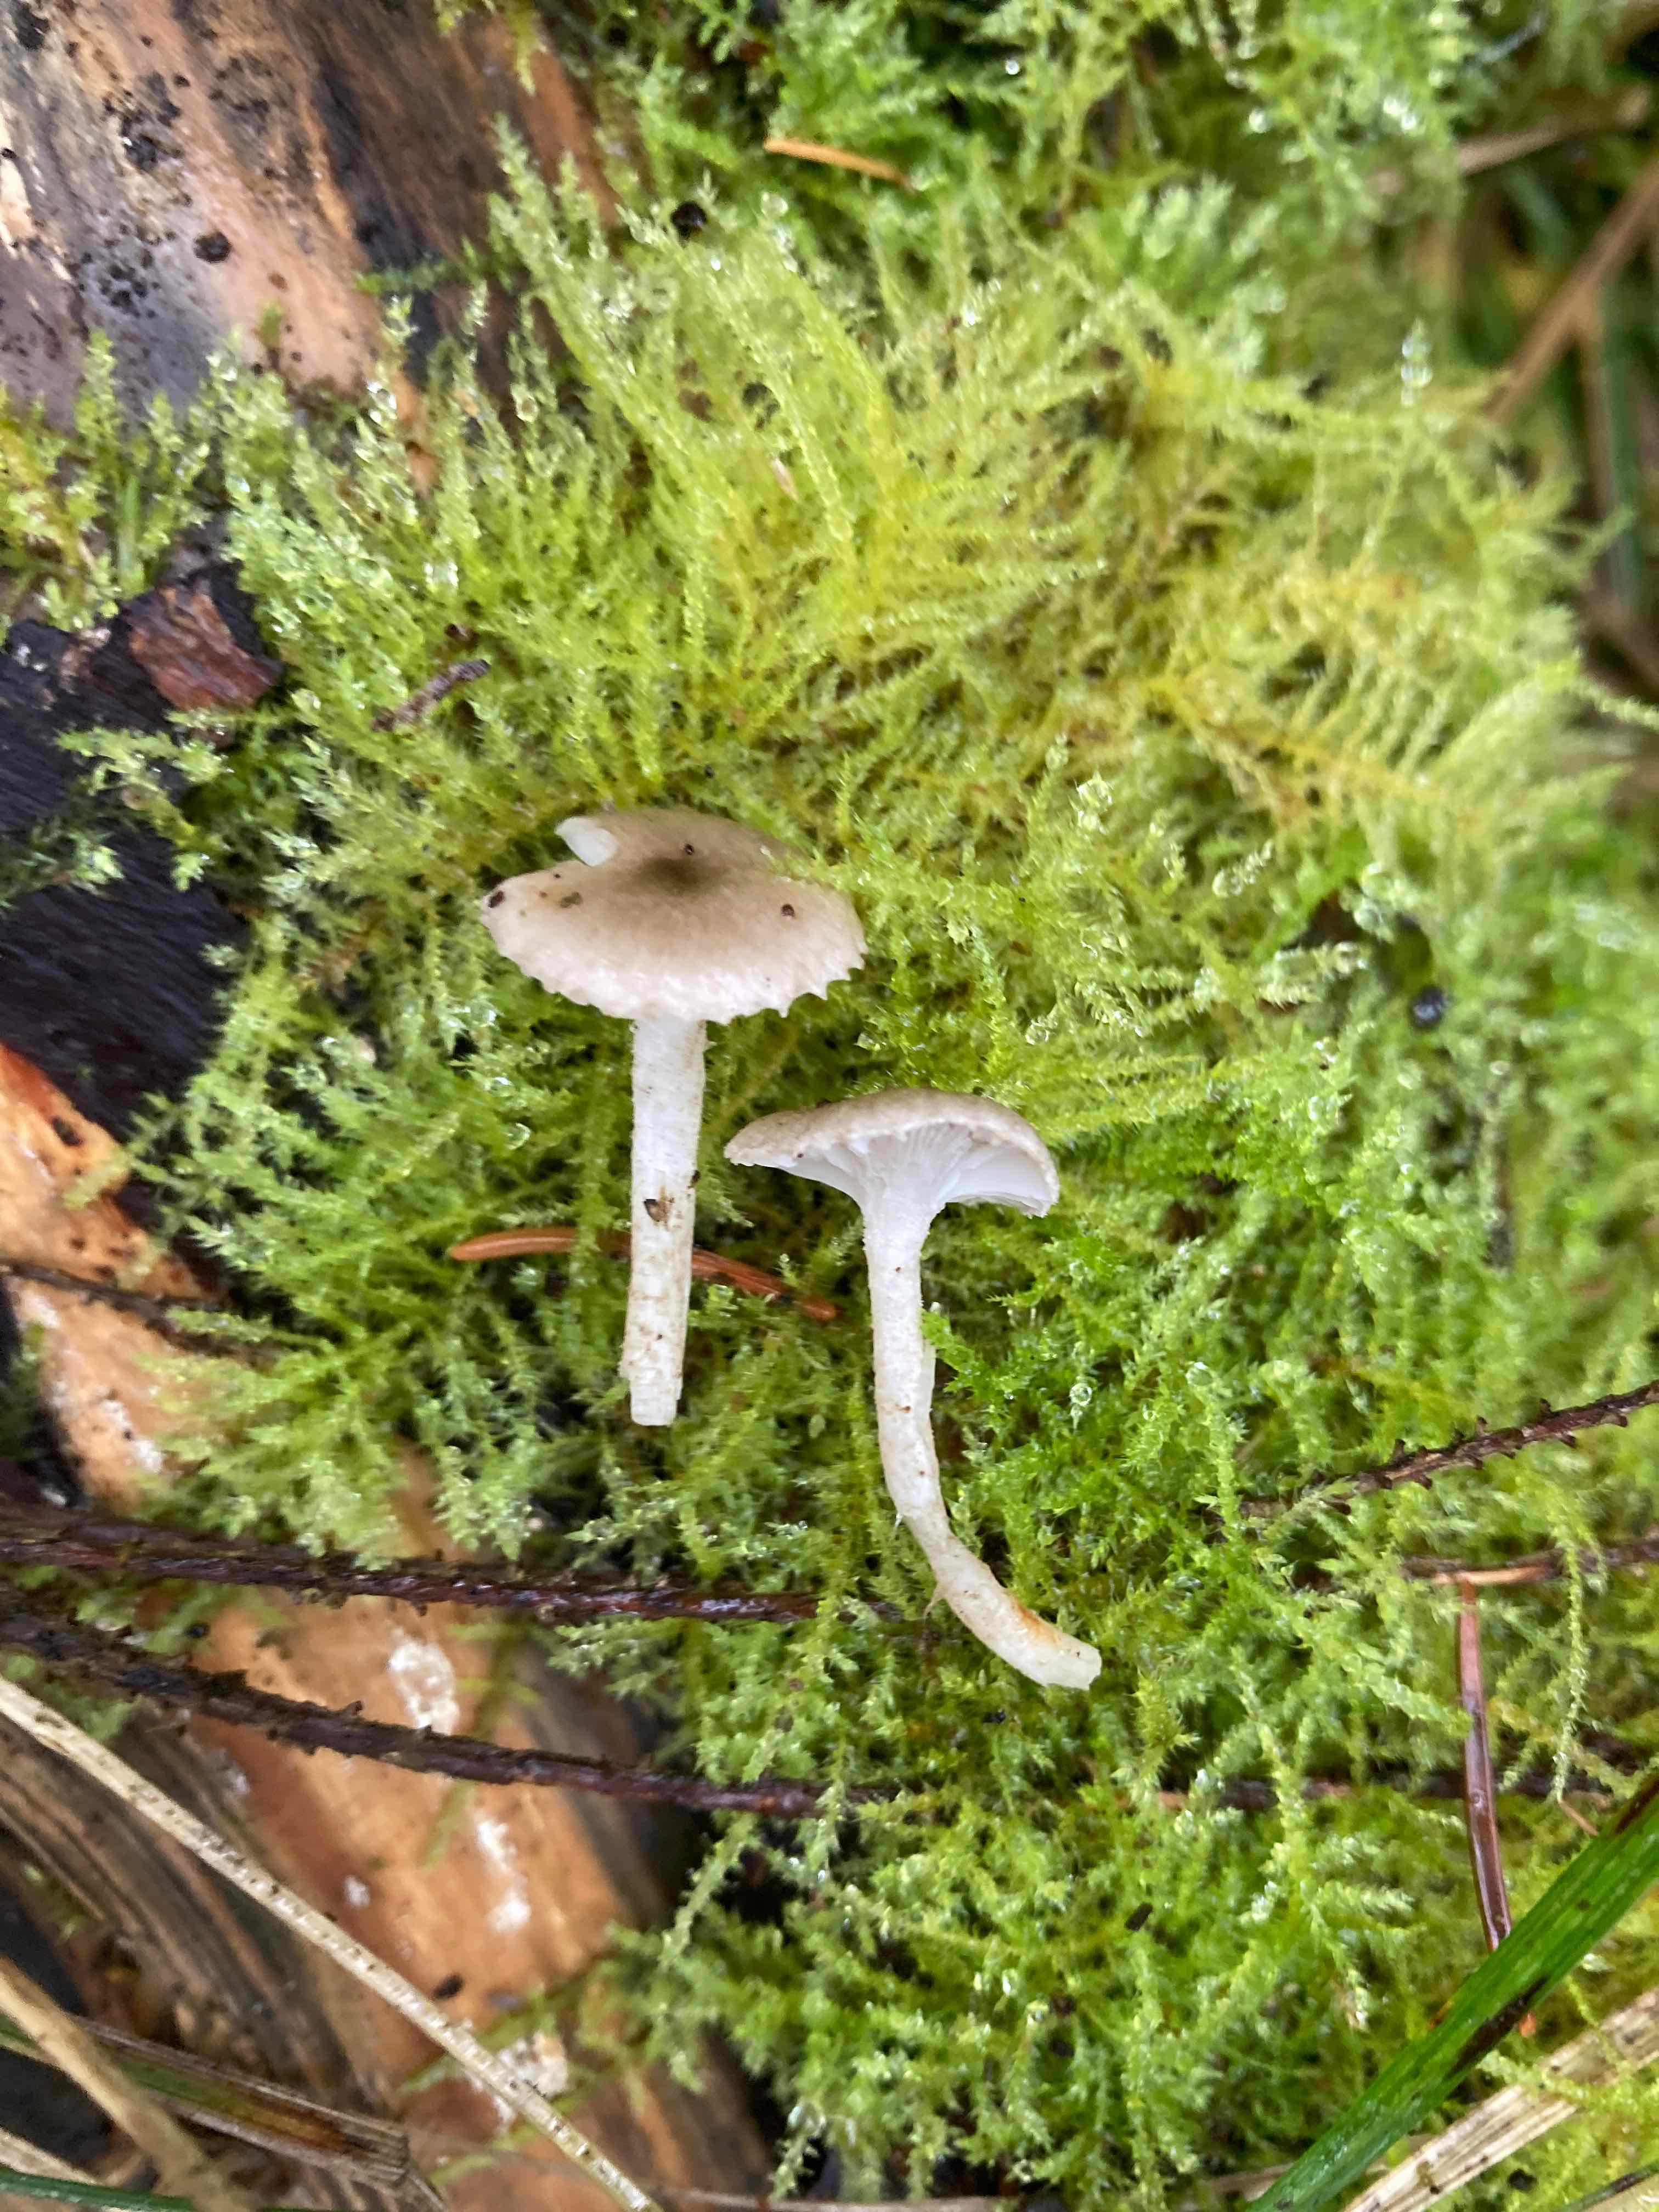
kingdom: Fungi
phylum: Basidiomycota
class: Agaricomycetes
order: Agaricales
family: Hygrophoraceae
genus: Hygrophorus
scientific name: Hygrophorus pustulatus
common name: mørkprikket sneglehat
